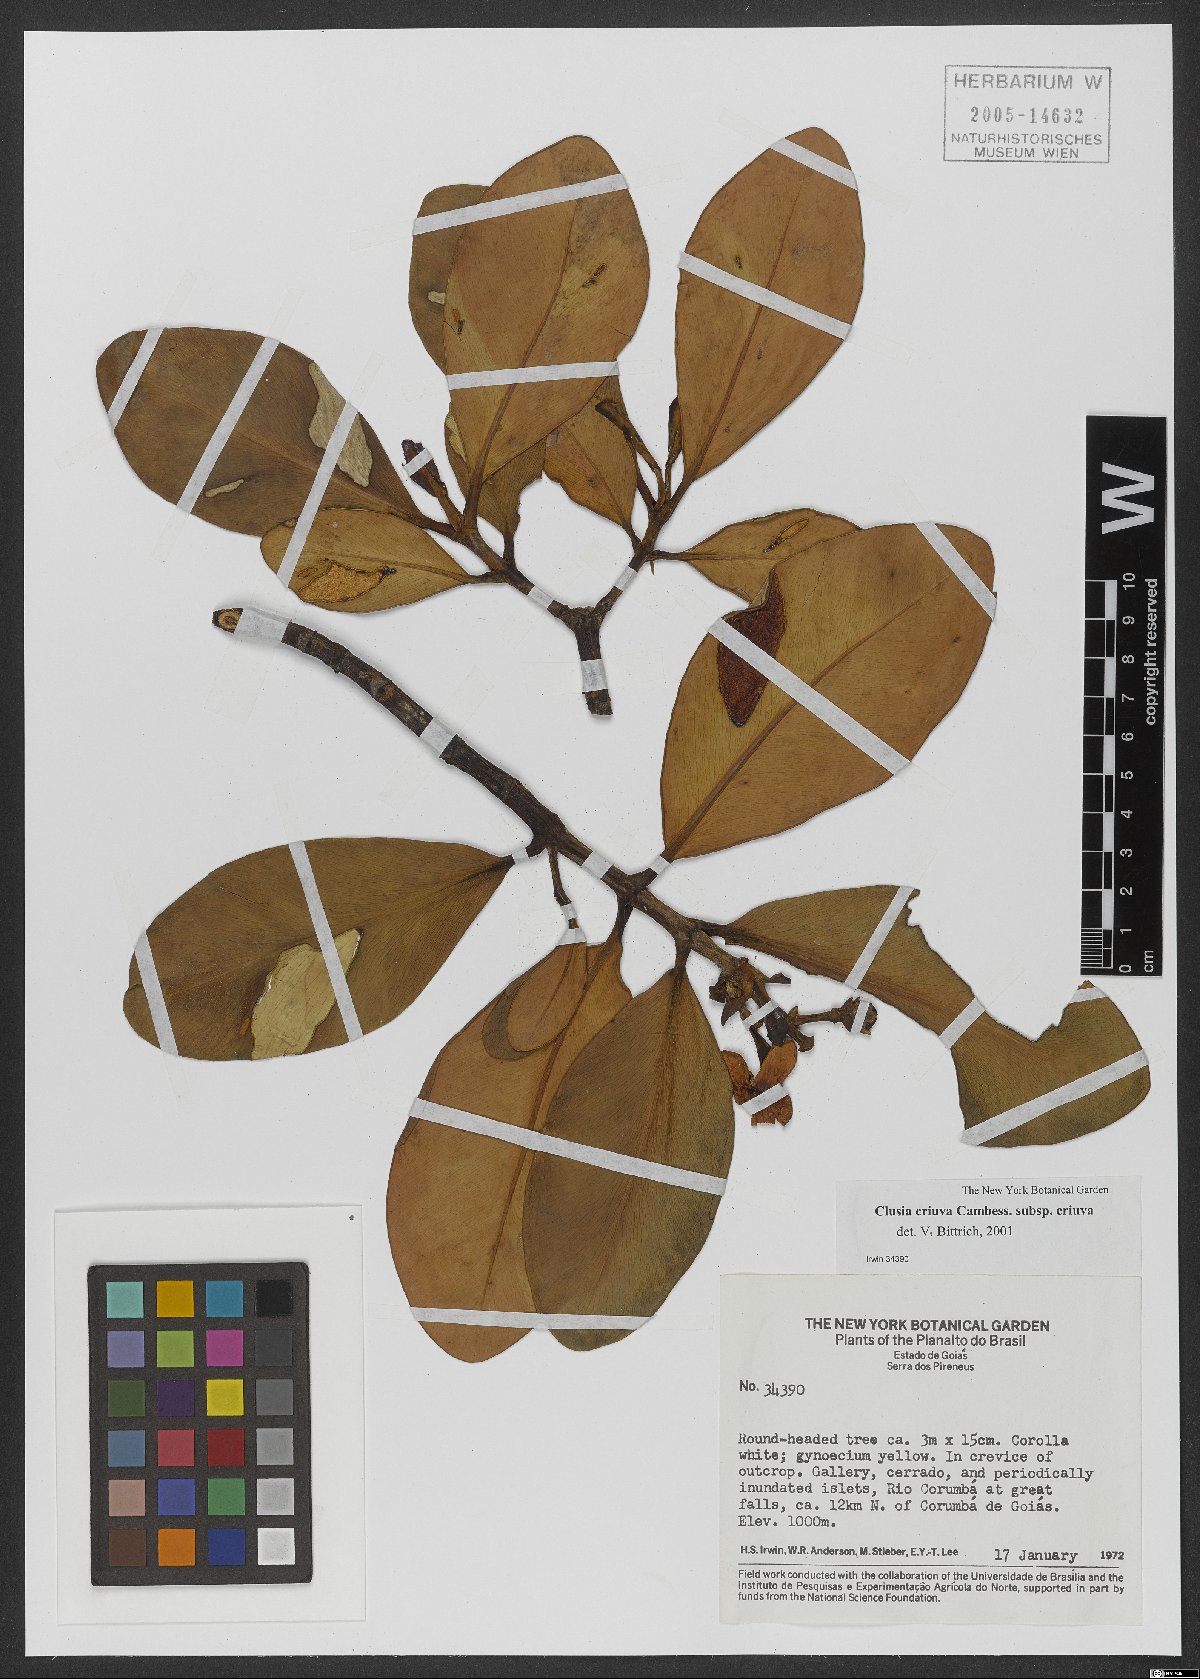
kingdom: Plantae
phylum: Tracheophyta
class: Magnoliopsida
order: Malpighiales
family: Clusiaceae
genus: Clusia
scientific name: Clusia criuva
